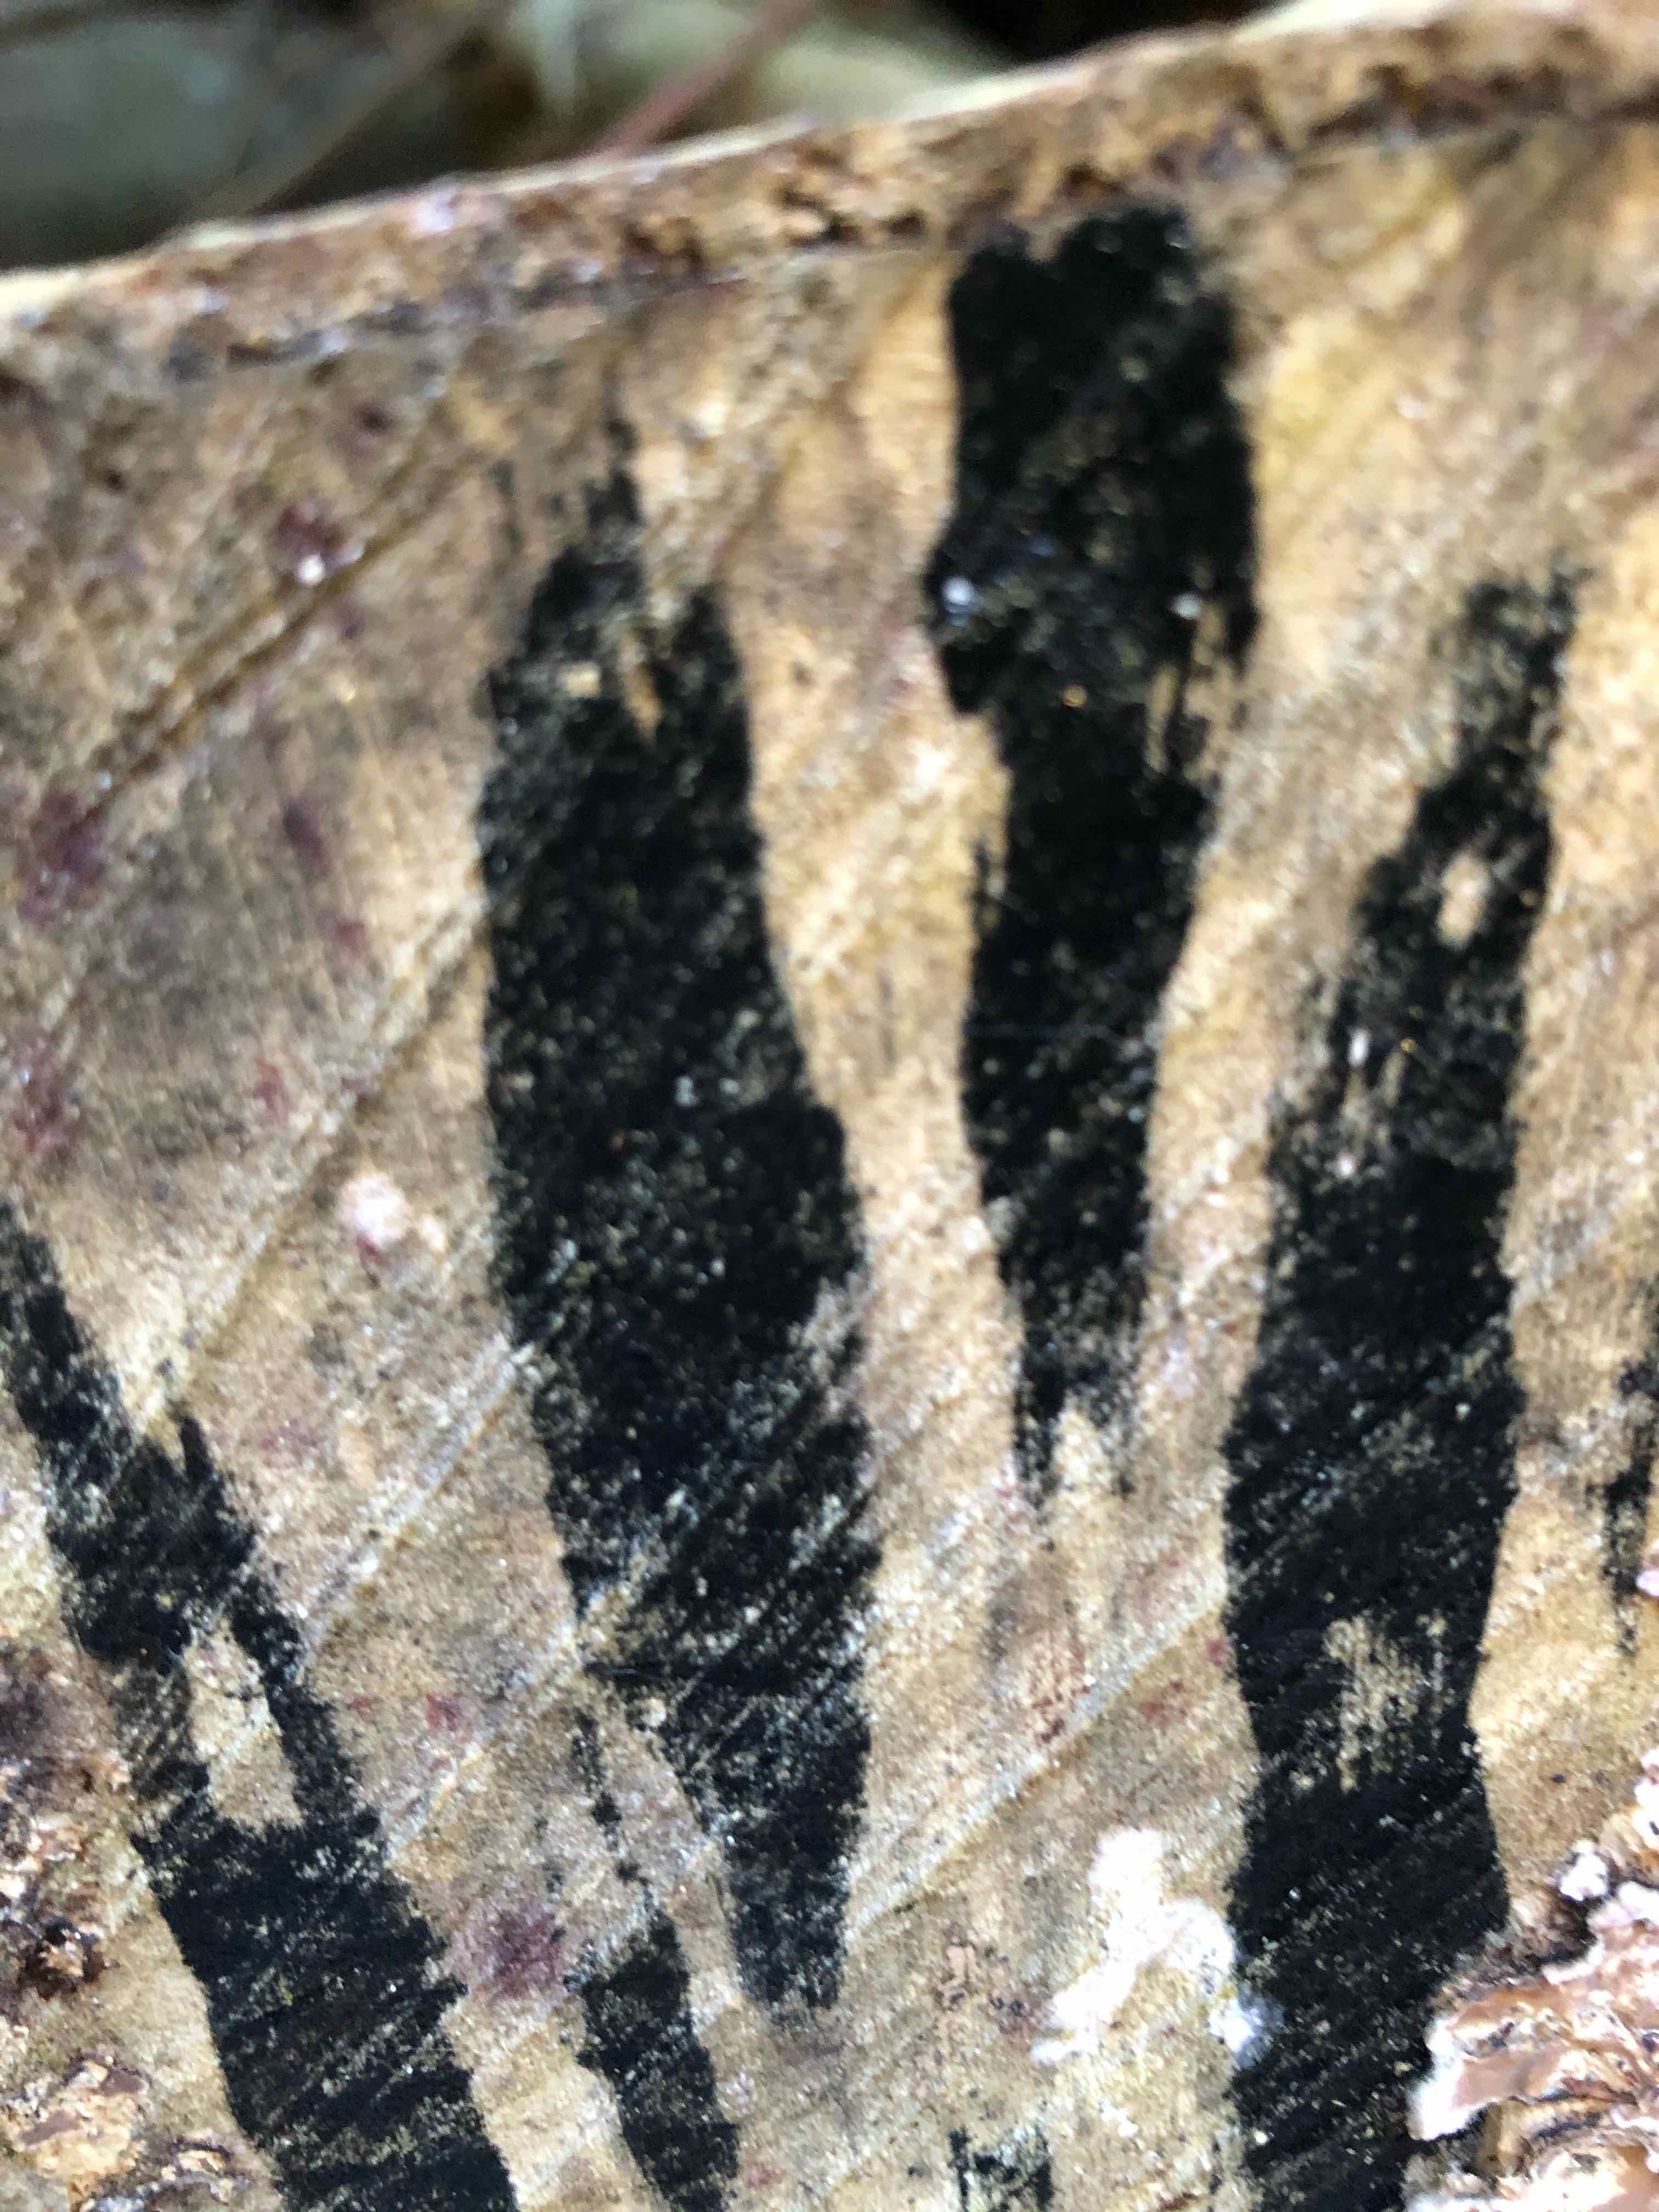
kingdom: Fungi
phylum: Ascomycota
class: Leotiomycetes
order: Helotiales
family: Helotiaceae
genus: Bispora
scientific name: Bispora pallescens
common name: måtte-snitskive
